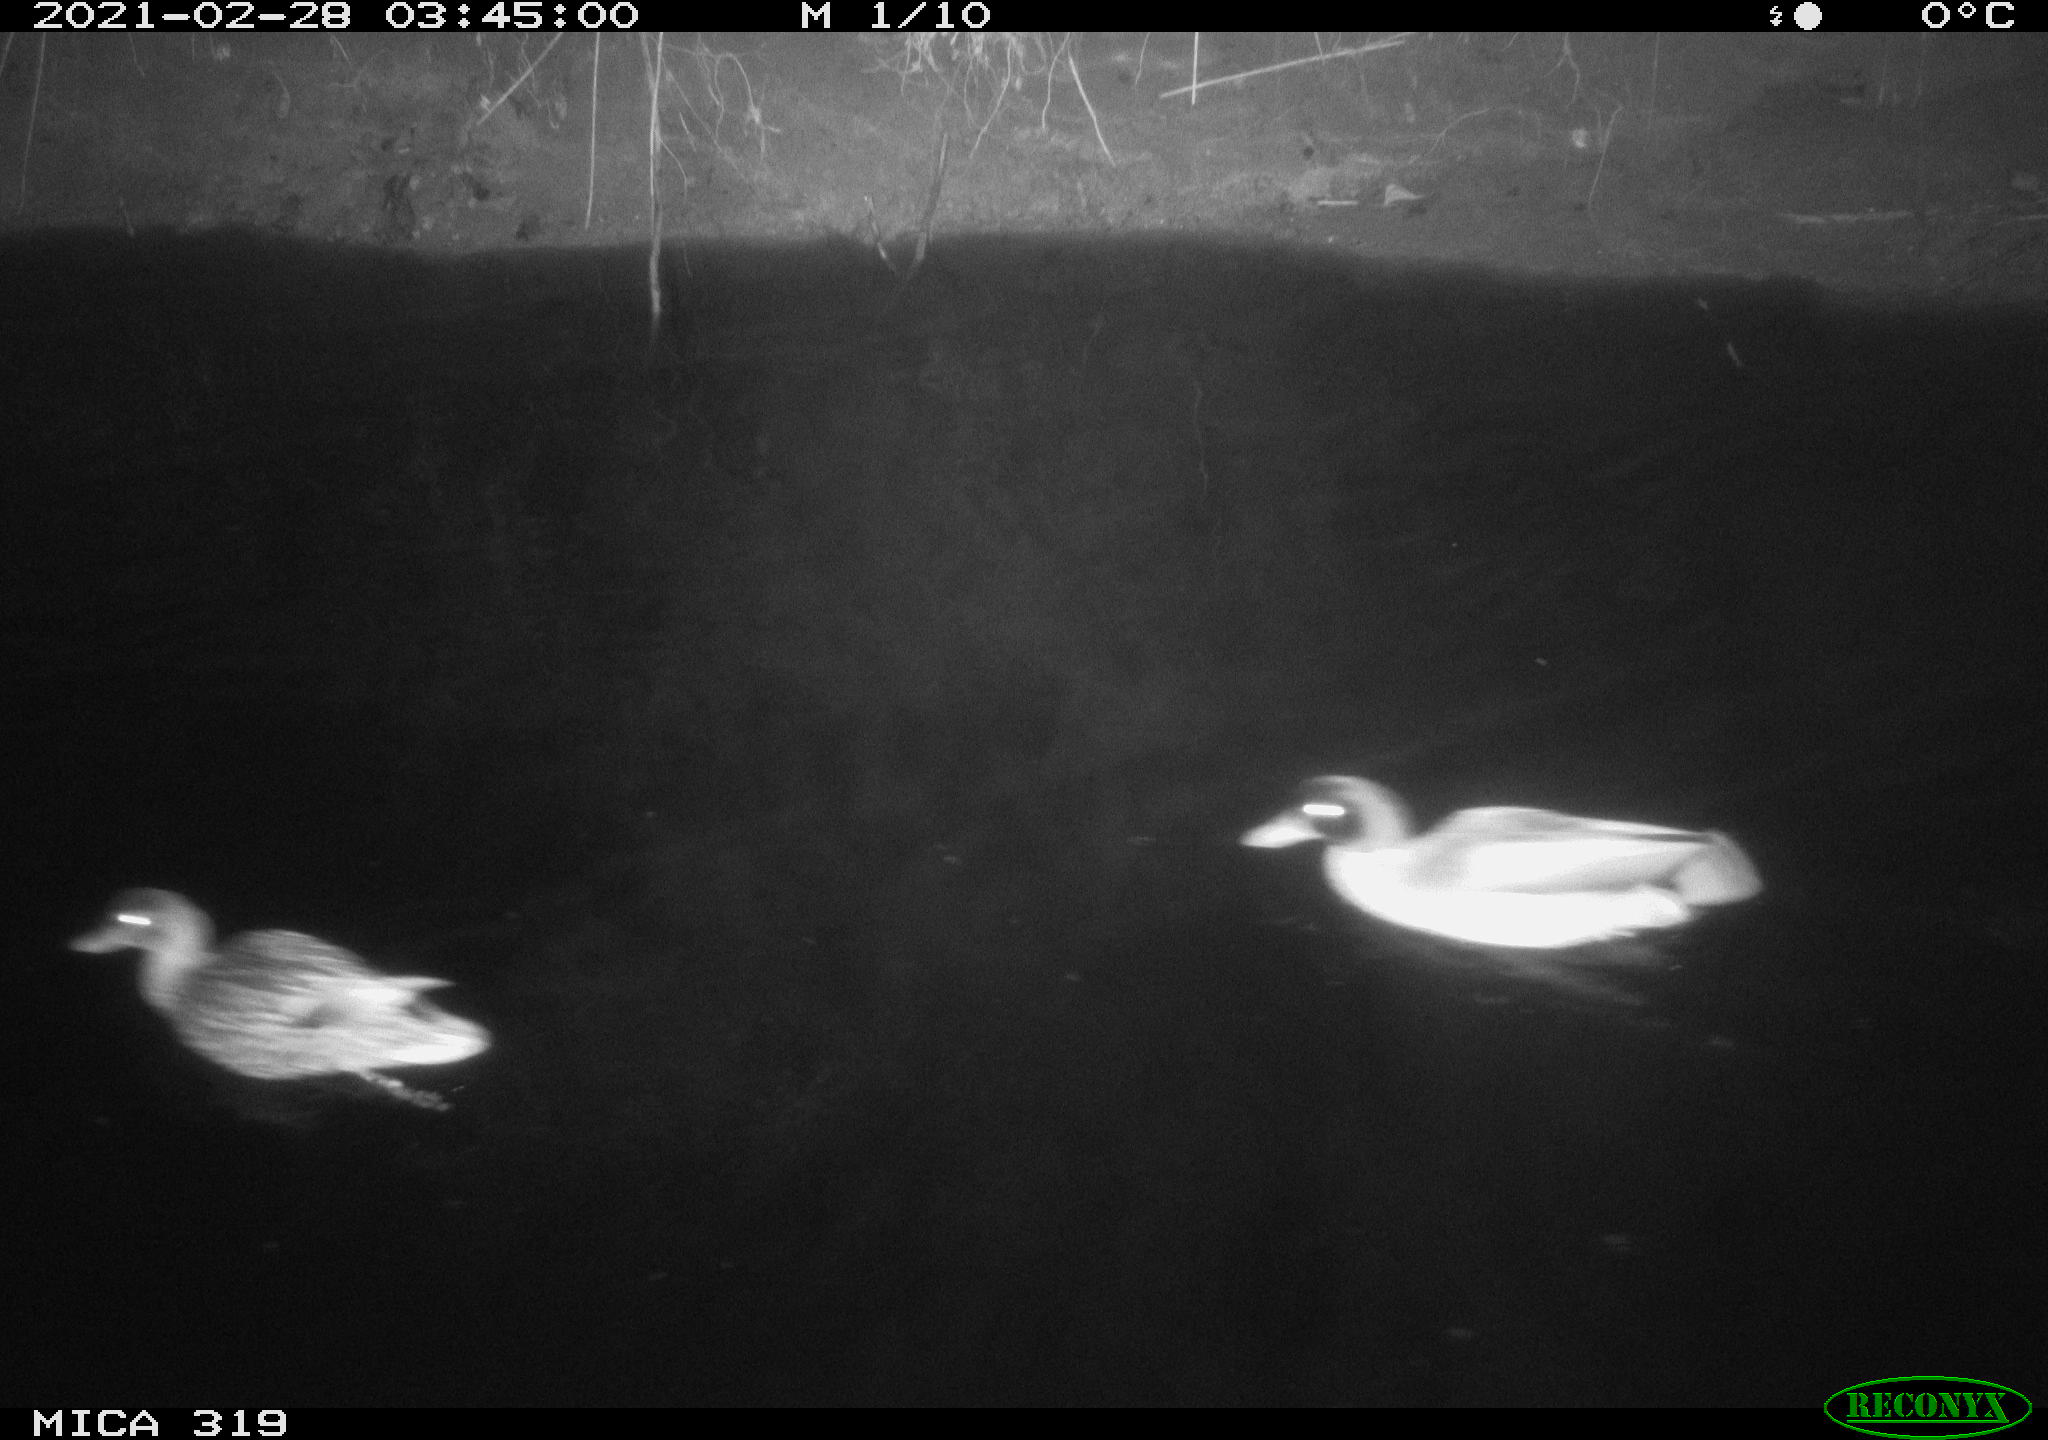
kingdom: Animalia
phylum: Chordata
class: Aves
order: Anseriformes
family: Anatidae
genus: Anas
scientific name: Anas platyrhynchos
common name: Mallard
